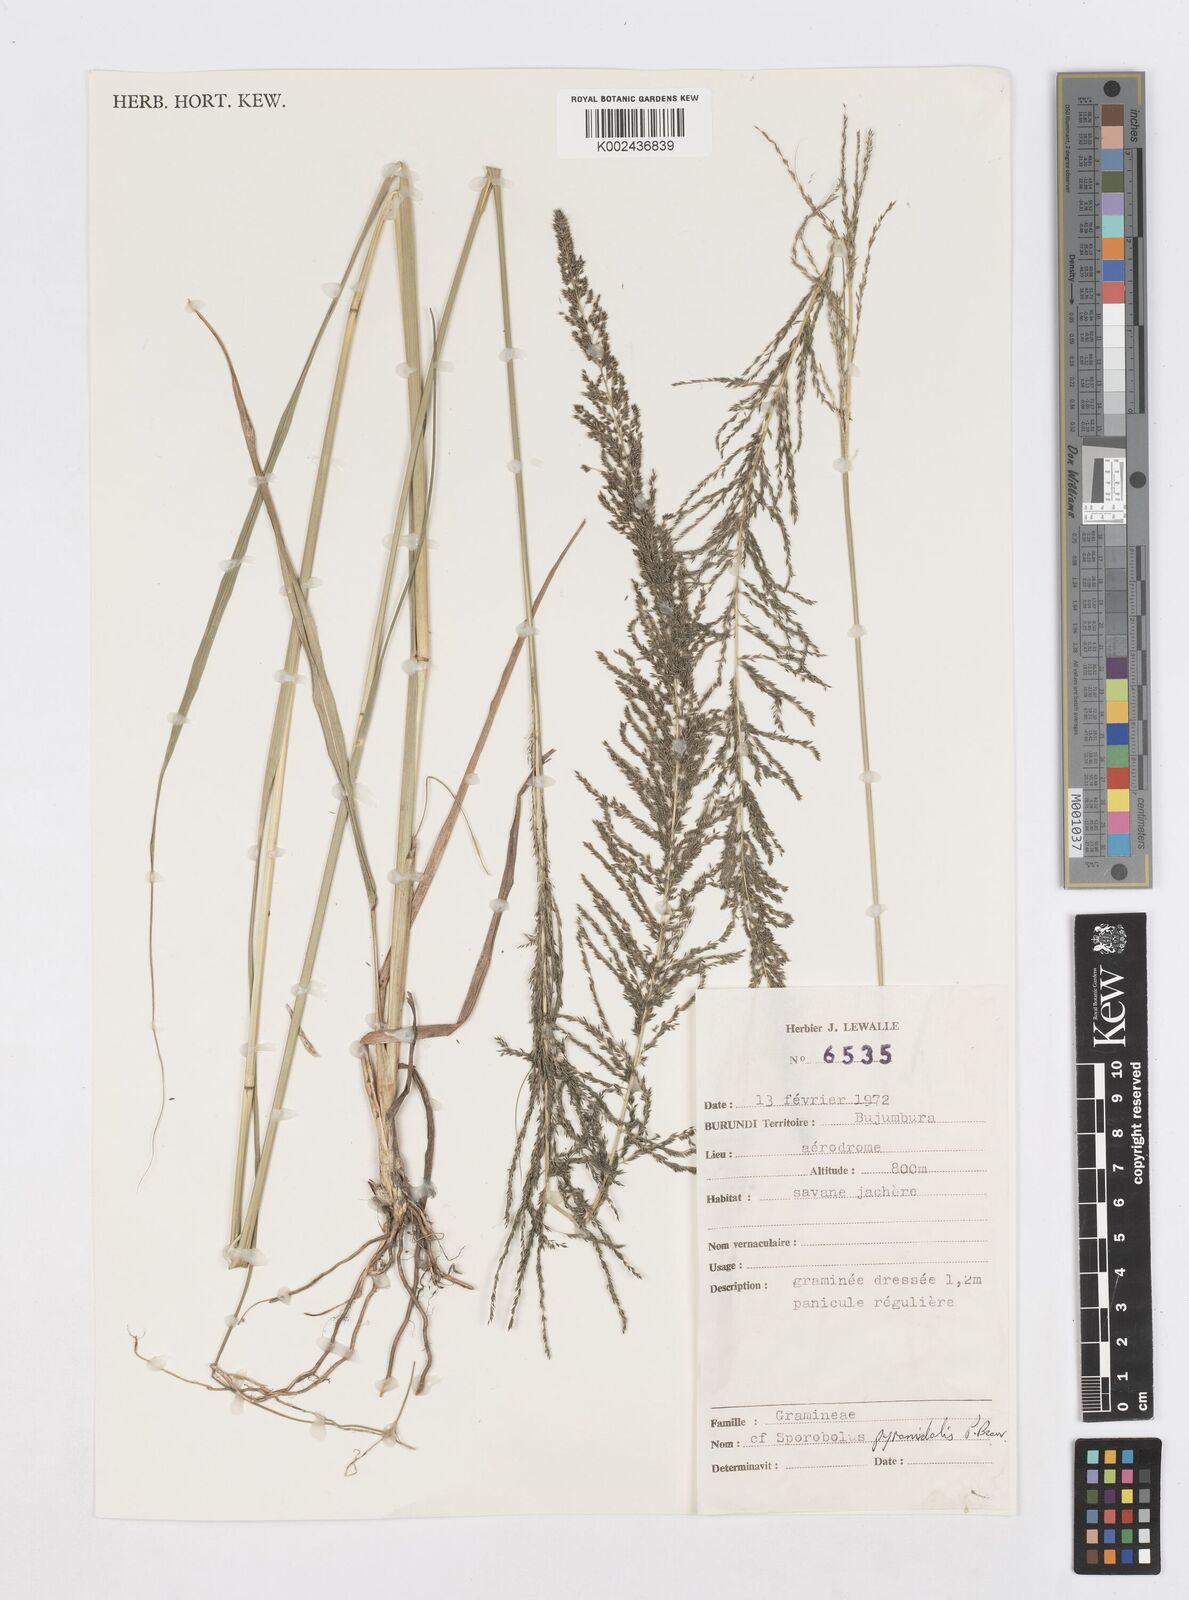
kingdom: Plantae
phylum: Tracheophyta
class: Liliopsida
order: Poales
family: Poaceae
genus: Sporobolus
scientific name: Sporobolus pyramidalis
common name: West indian dropseed
